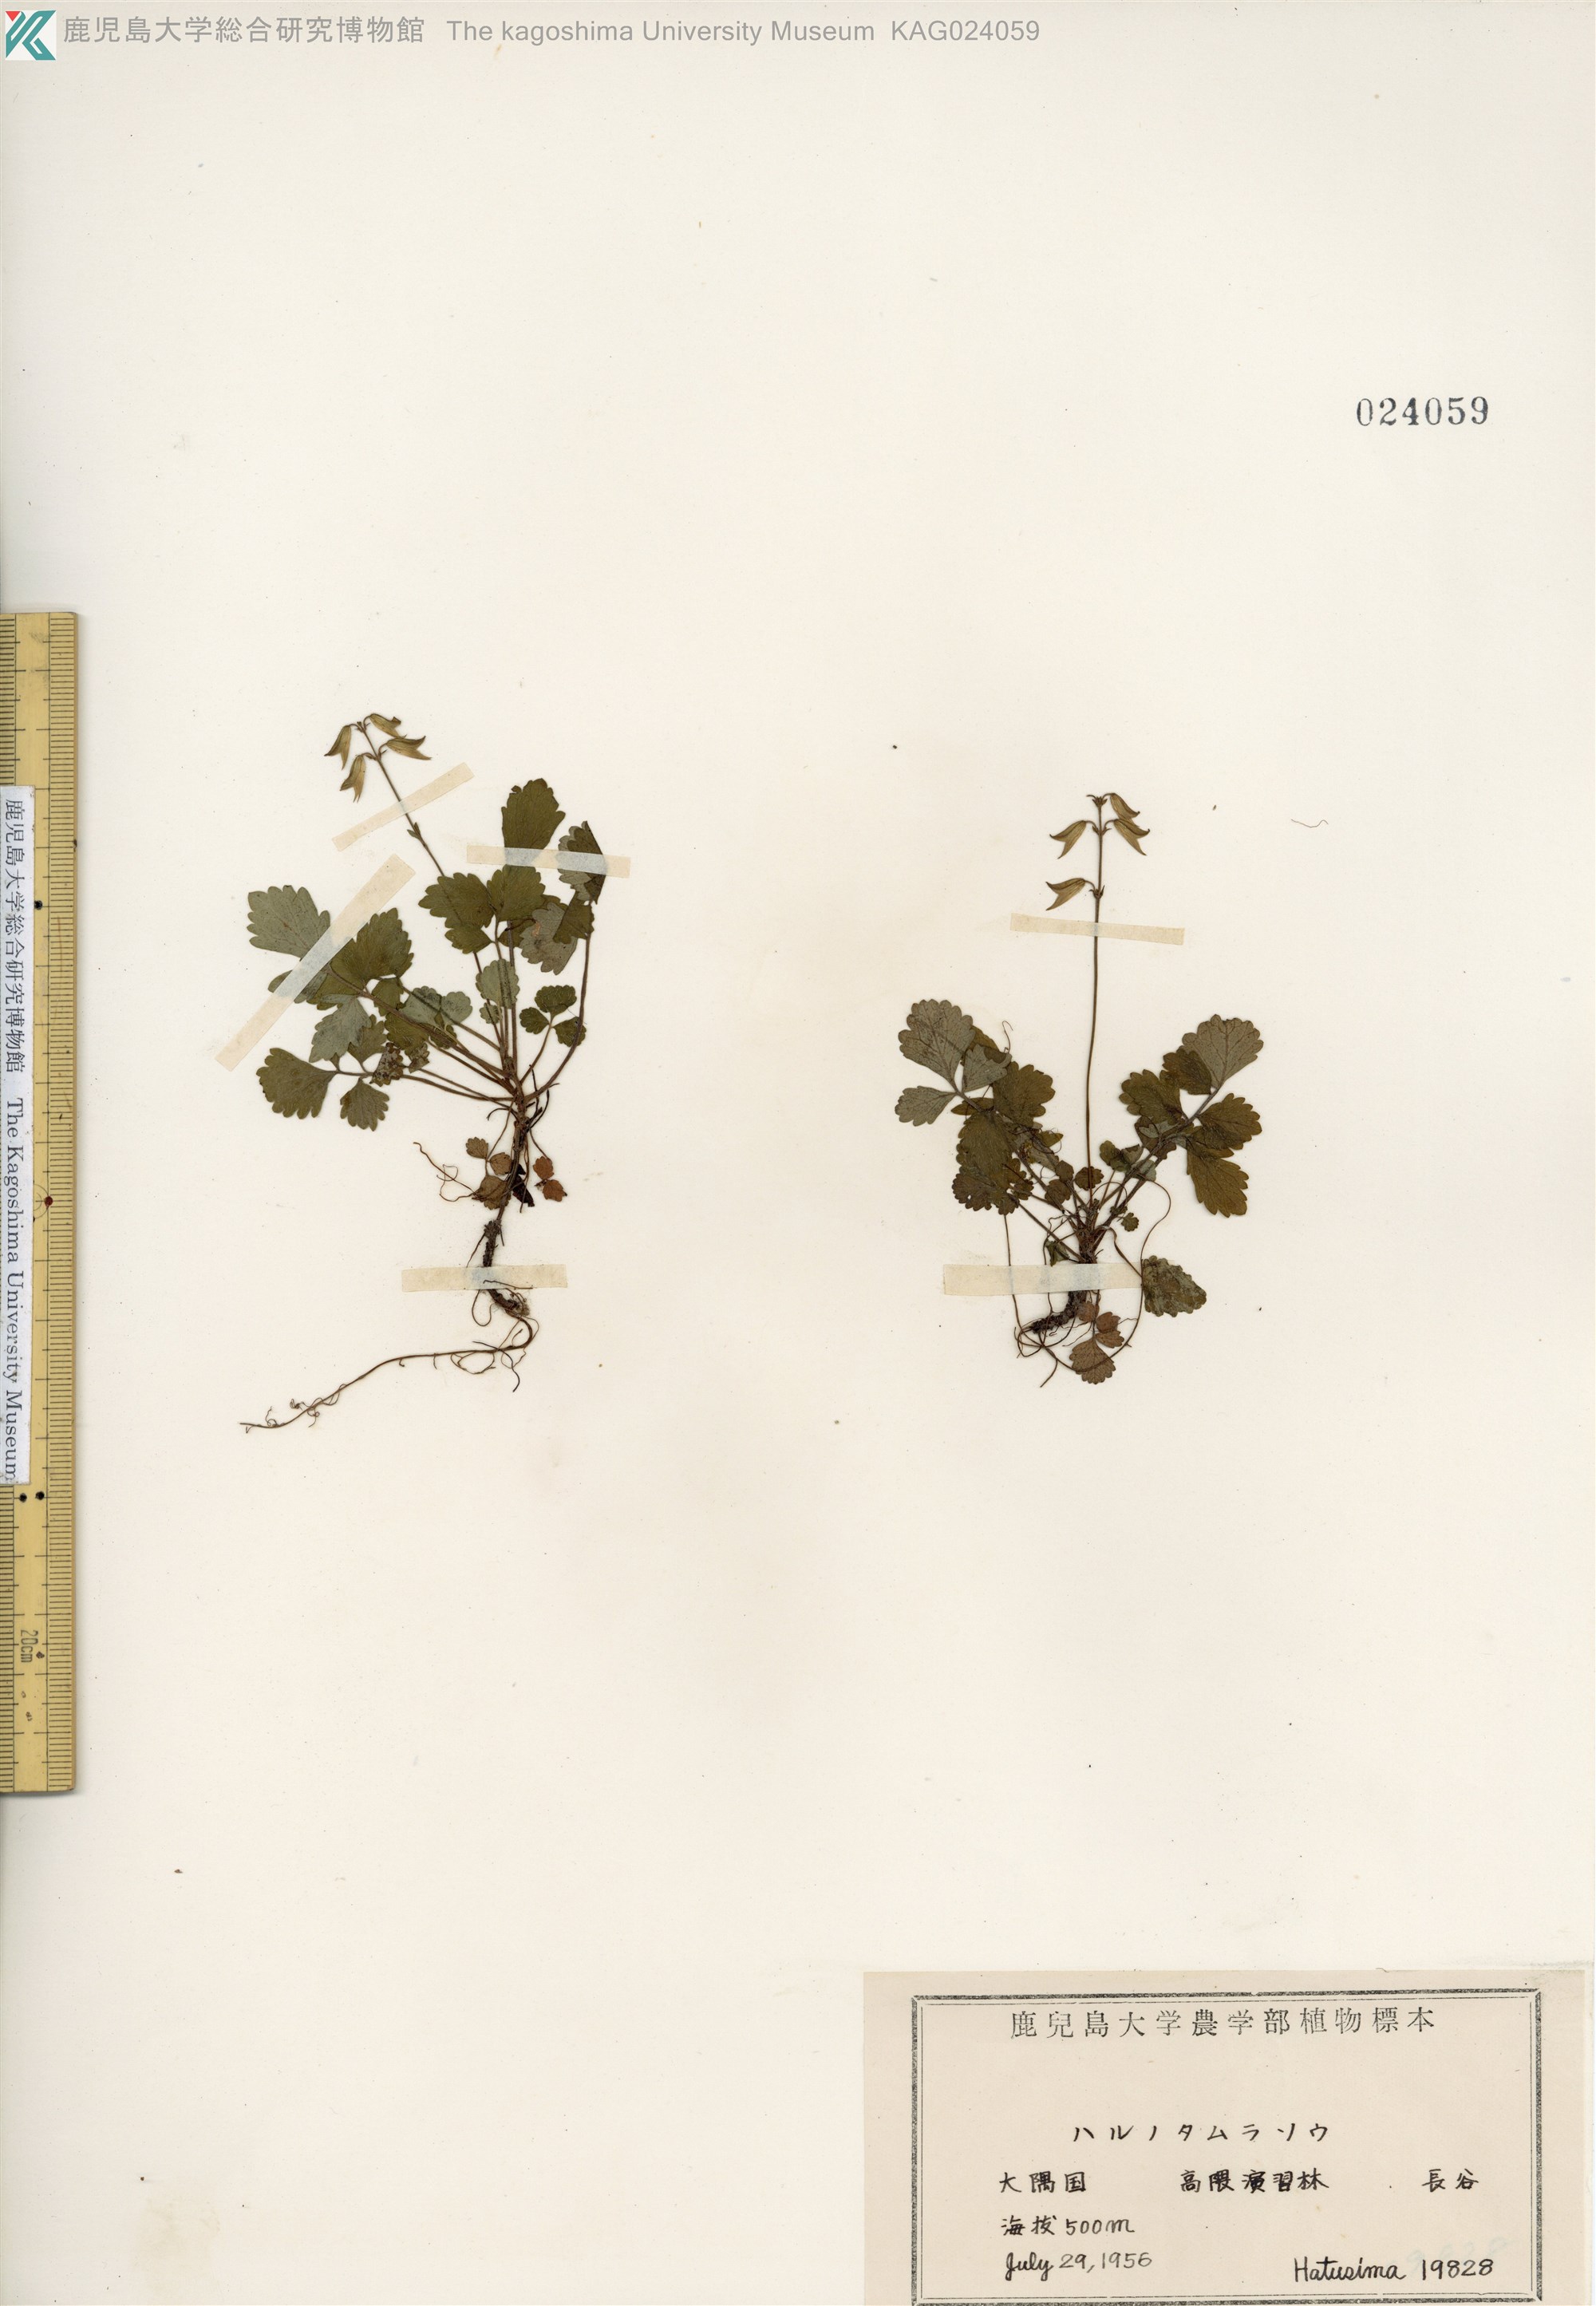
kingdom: Plantae
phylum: Tracheophyta
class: Magnoliopsida
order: Lamiales
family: Lamiaceae
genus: Salvia
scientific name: Salvia ranzaniana
